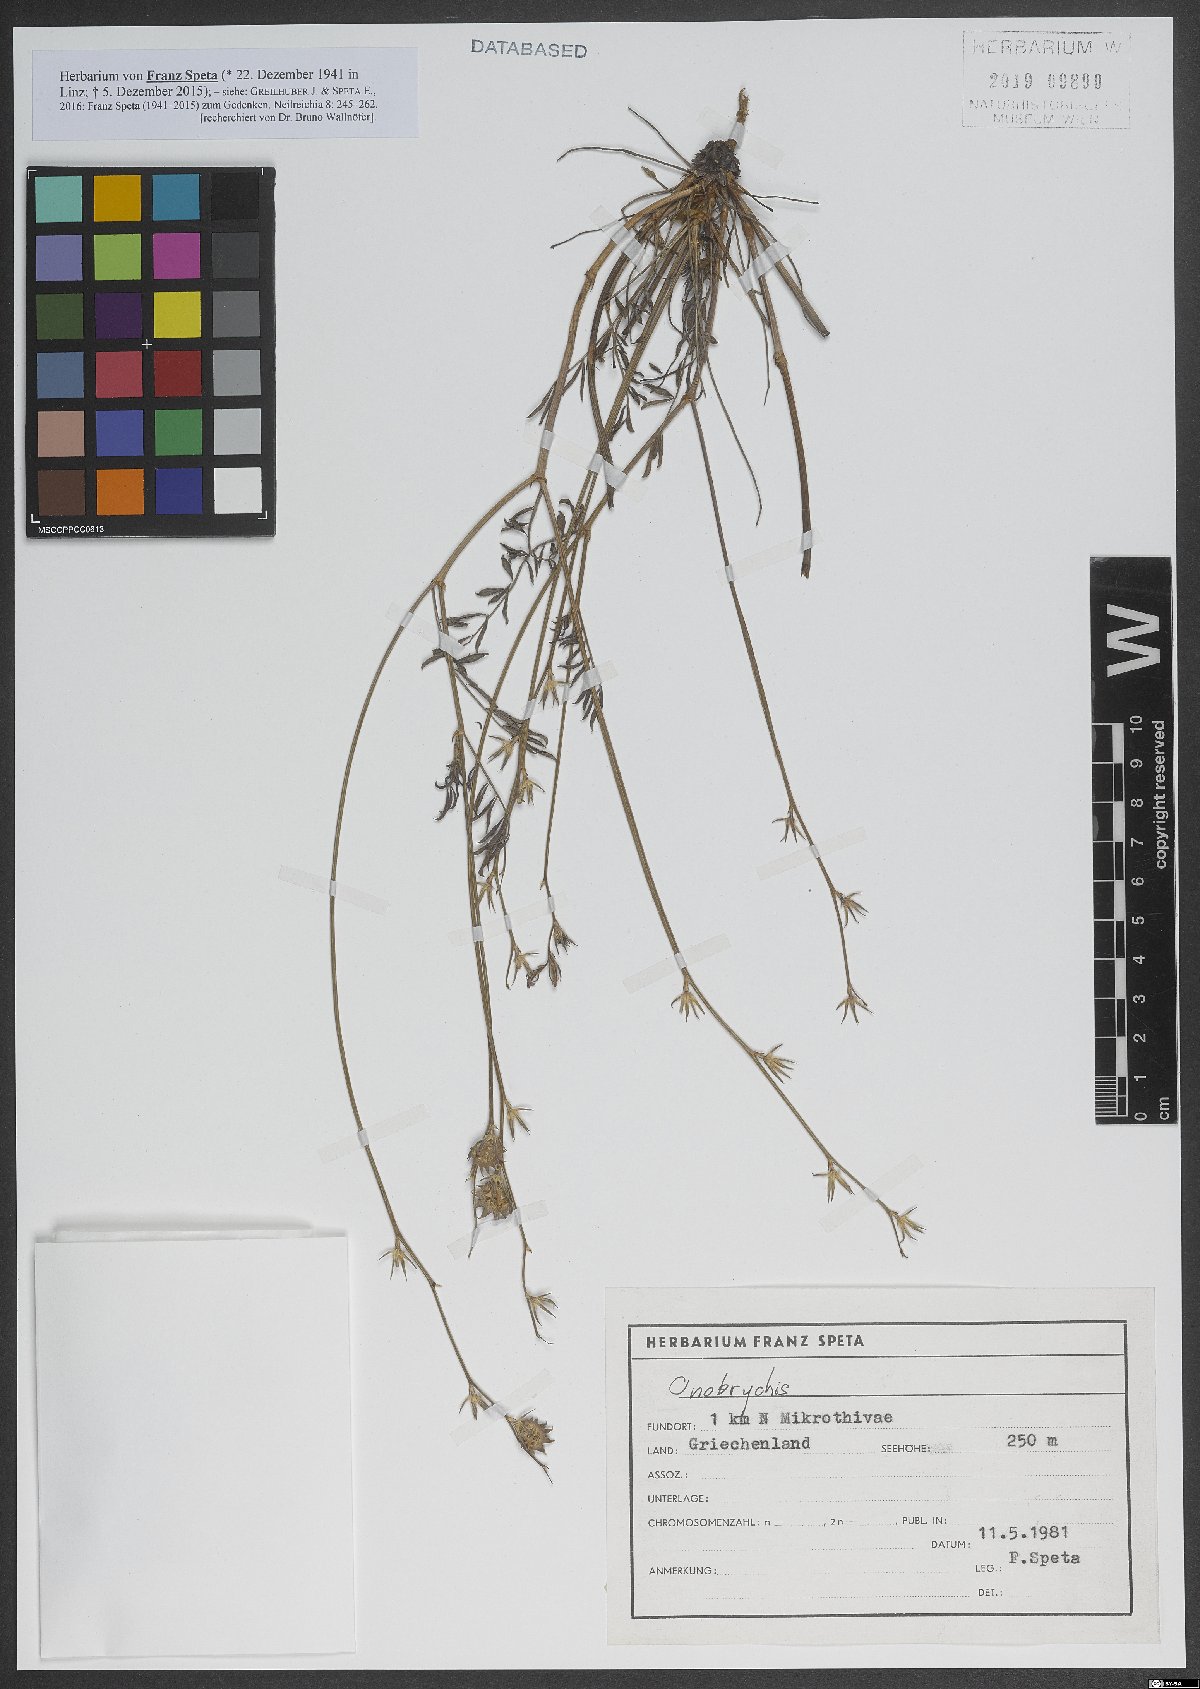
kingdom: Plantae
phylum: Tracheophyta
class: Magnoliopsida
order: Fabales
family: Fabaceae
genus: Onobrychis
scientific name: Onobrychis
